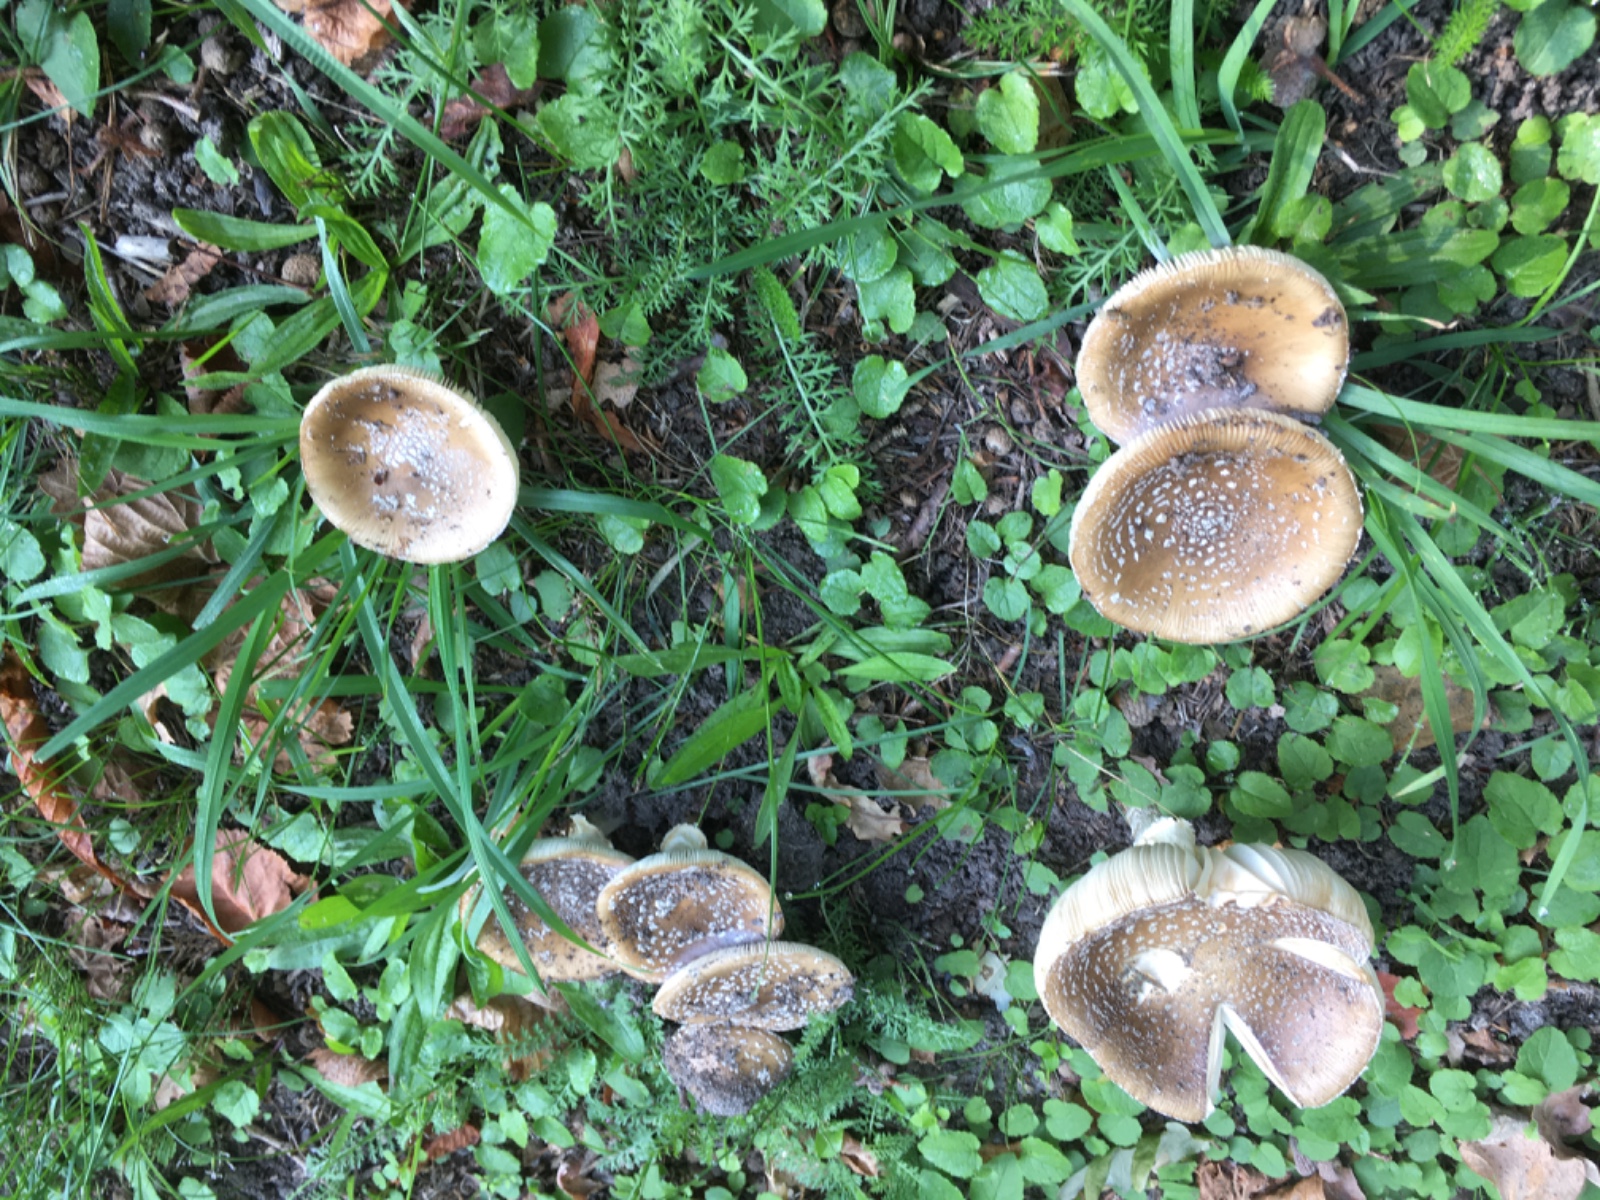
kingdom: Fungi
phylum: Basidiomycota
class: Agaricomycetes
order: Agaricales
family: Amanitaceae
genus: Amanita
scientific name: Amanita pantherina
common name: panter-fluesvamp
